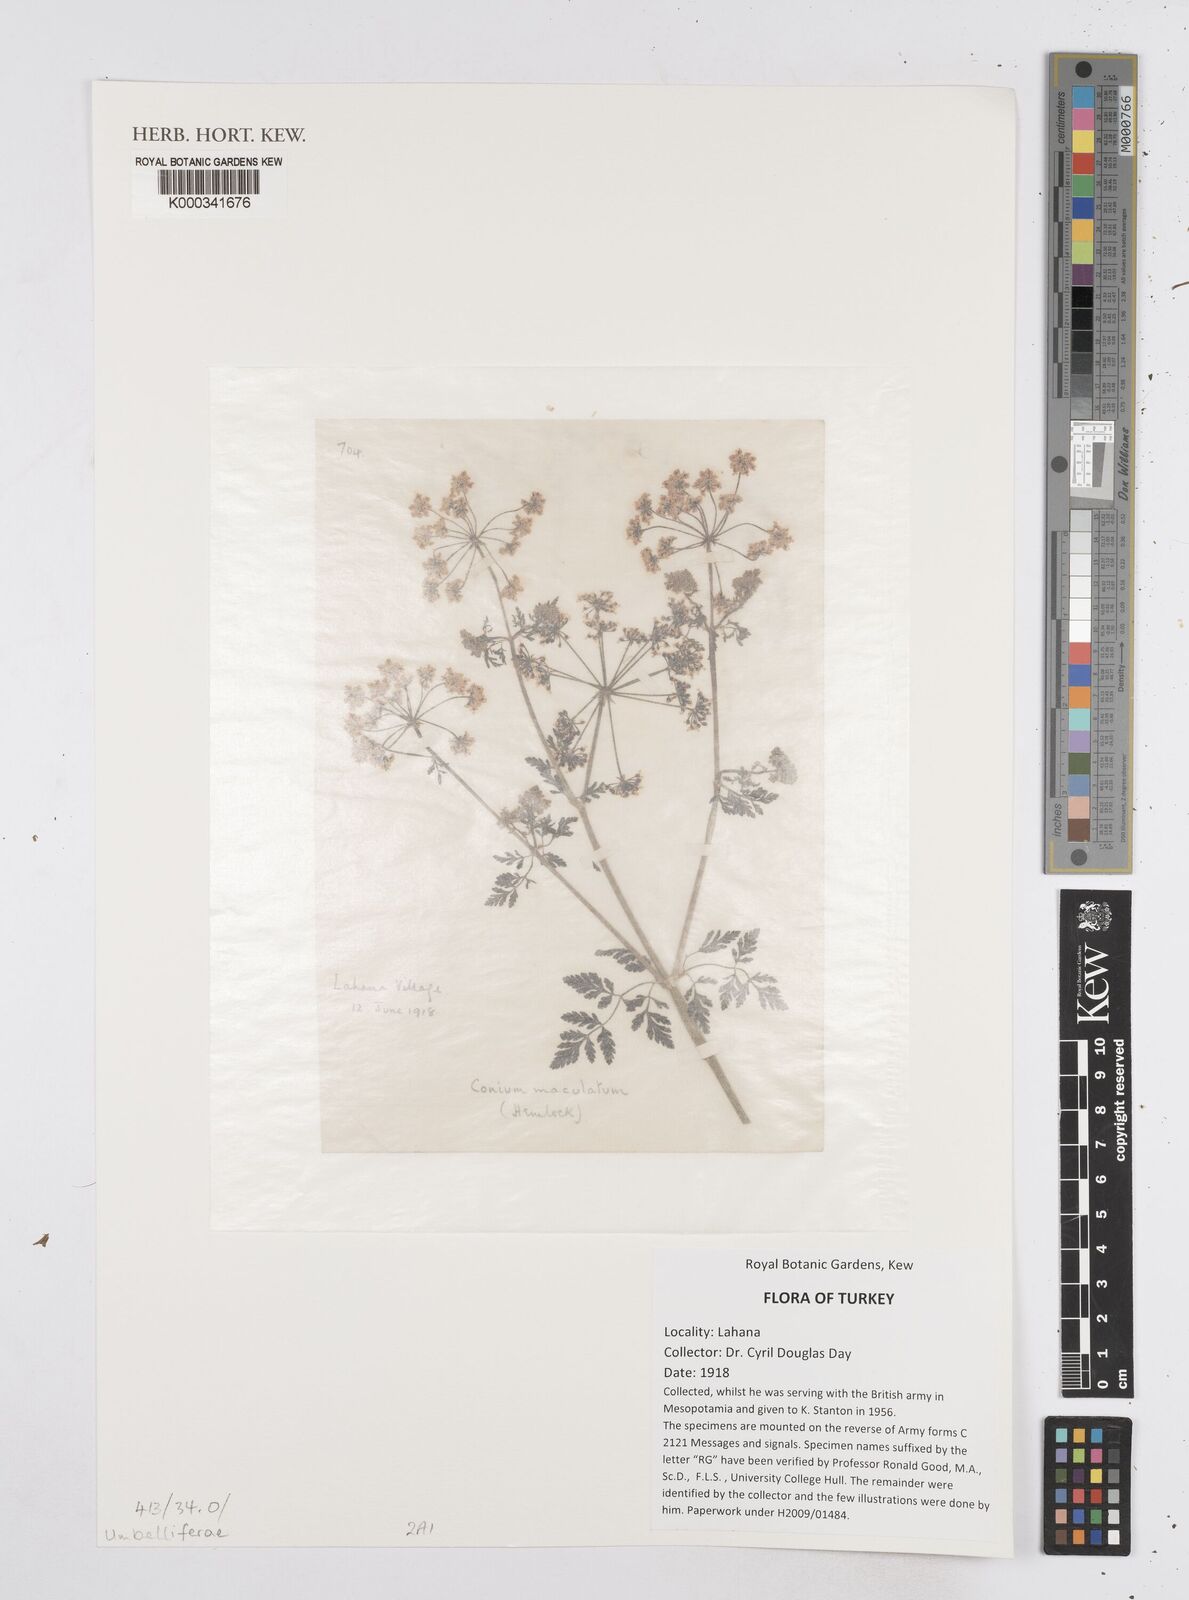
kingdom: Plantae
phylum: Tracheophyta
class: Magnoliopsida
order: Apiales
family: Apiaceae
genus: Conium
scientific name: Conium maculatum
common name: Hemlock
